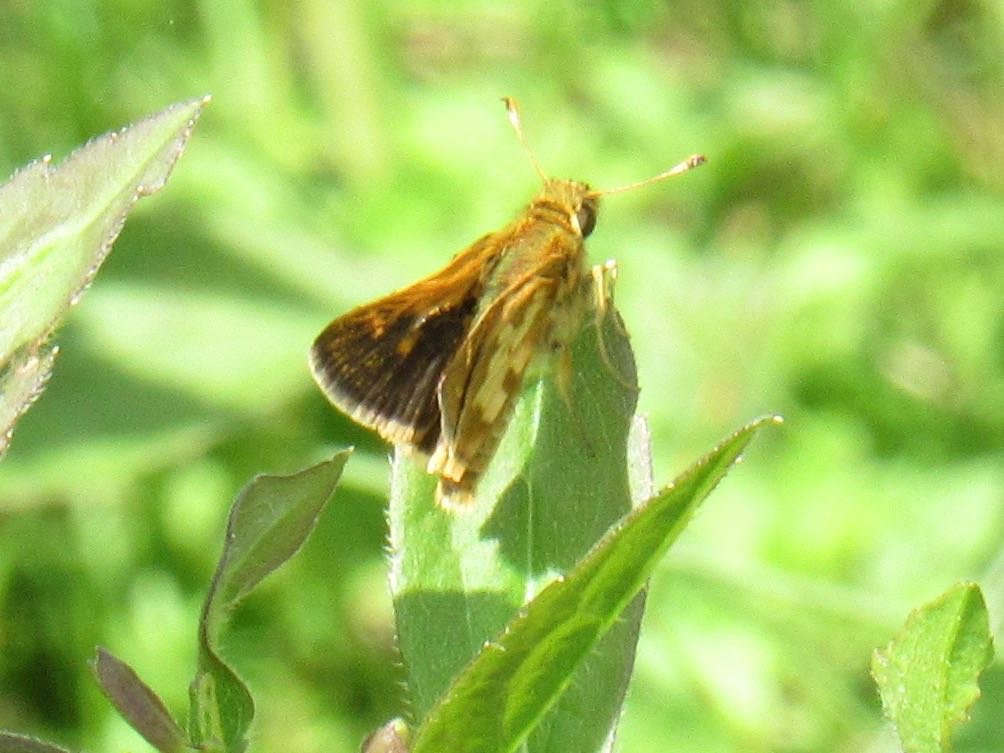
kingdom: Animalia
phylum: Arthropoda
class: Insecta
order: Lepidoptera
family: Hesperiidae
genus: Polites
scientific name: Polites coras
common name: Peck's Skipper
